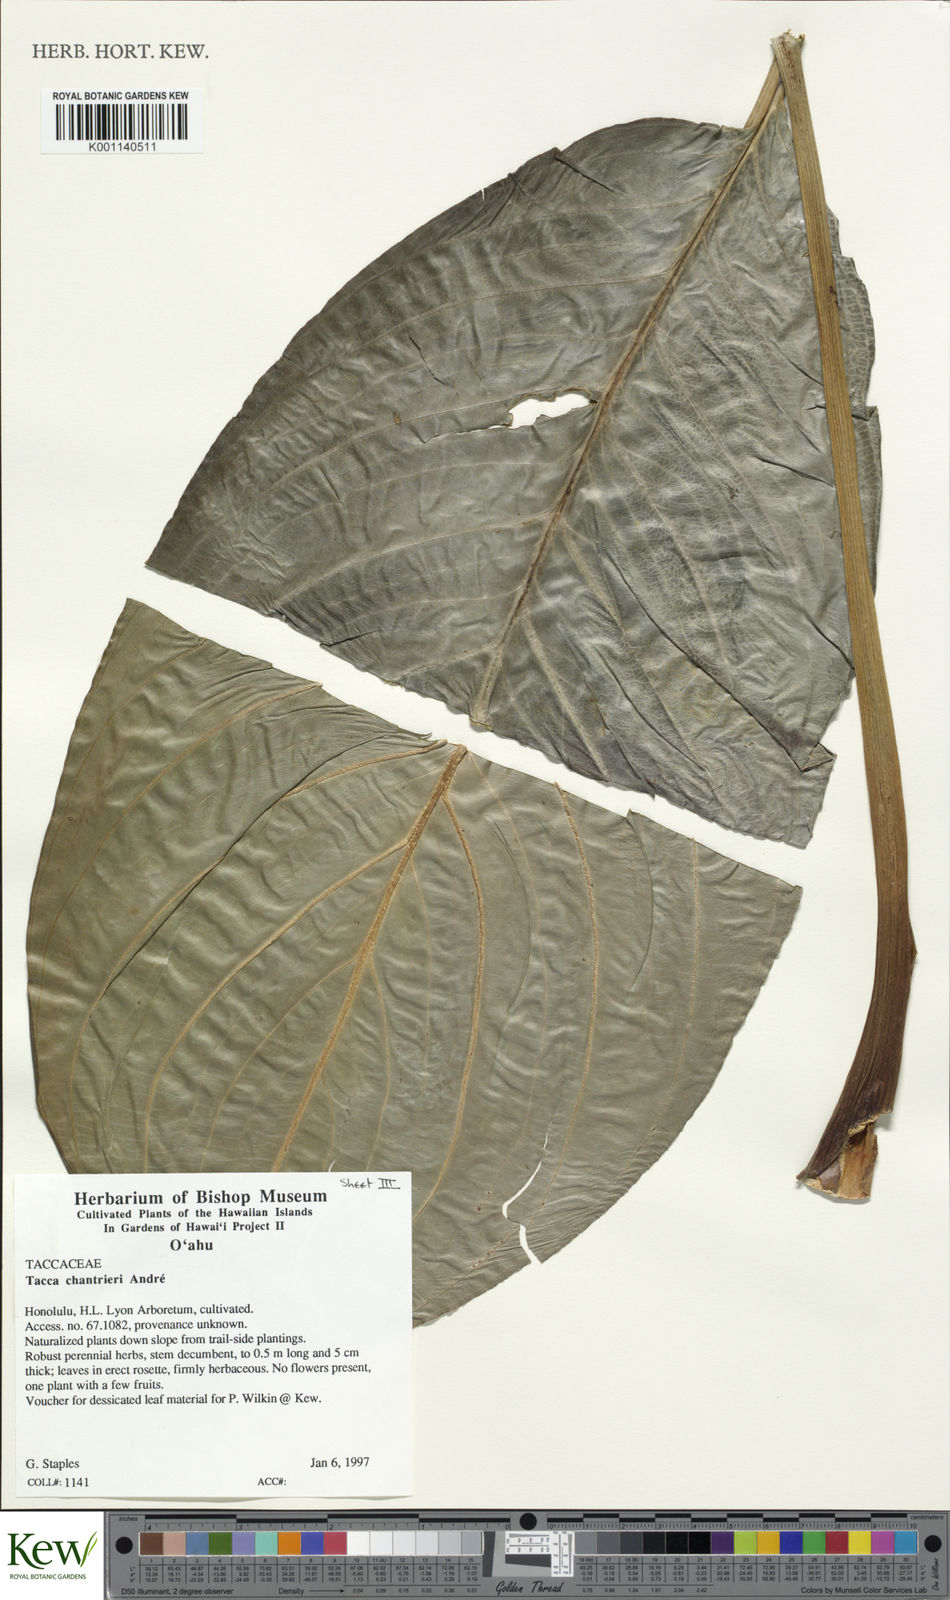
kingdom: Plantae
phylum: Tracheophyta
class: Liliopsida
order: Dioscoreales
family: Dioscoreaceae
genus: Tacca
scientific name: Tacca
